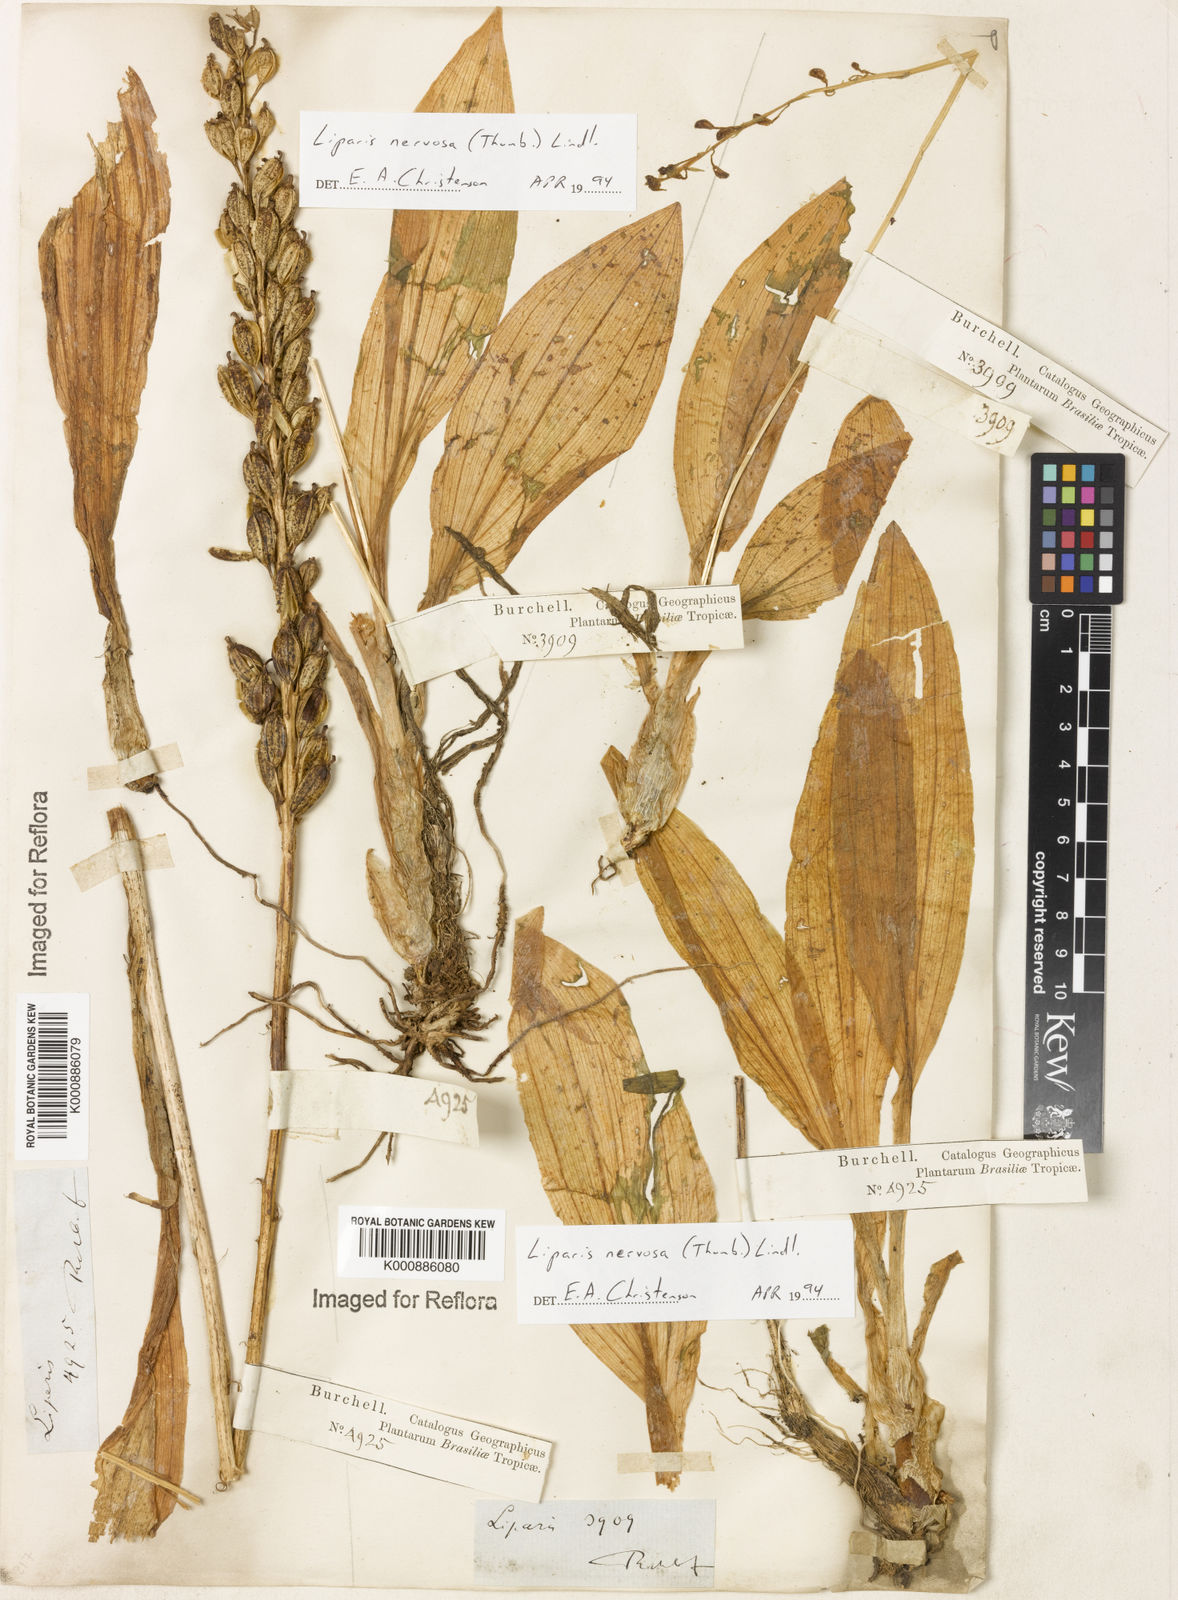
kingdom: Plantae
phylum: Tracheophyta
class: Liliopsida
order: Asparagales
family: Orchidaceae
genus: Liparis
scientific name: Liparis nervosa
